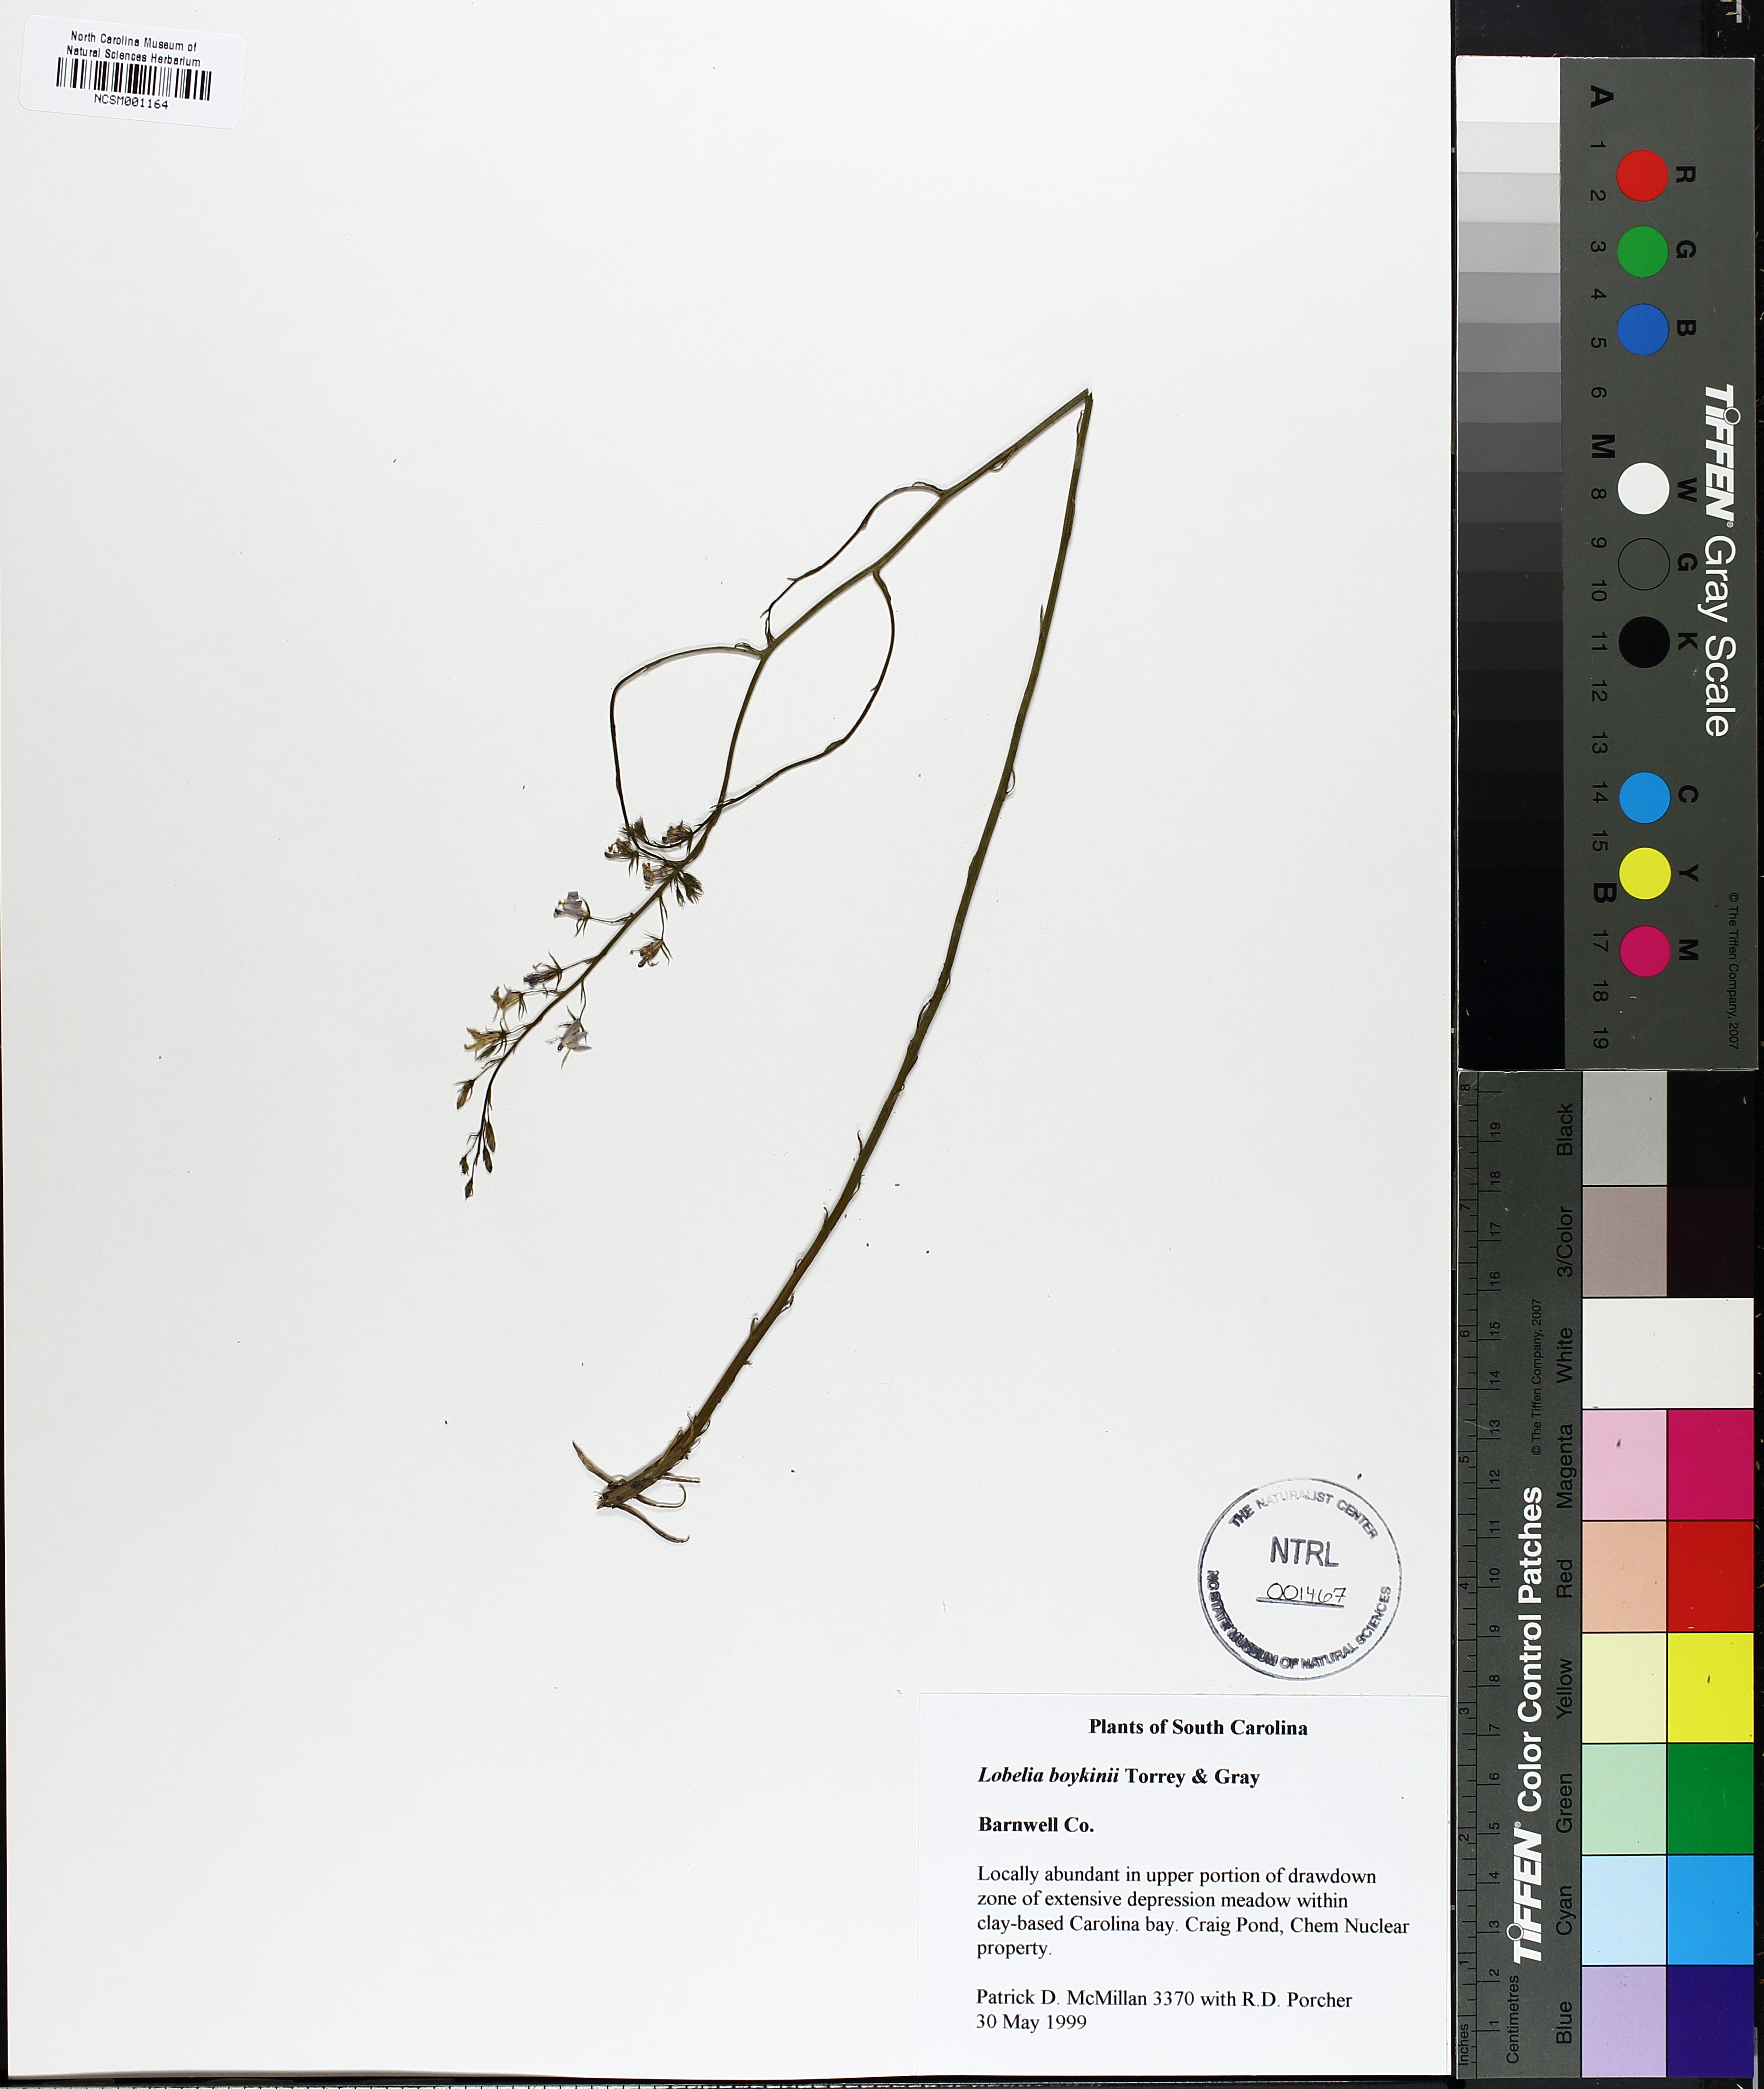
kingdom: Plantae
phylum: Tracheophyta
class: Magnoliopsida
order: Asterales
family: Campanulaceae
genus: Lobelia
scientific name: Lobelia boykinii
